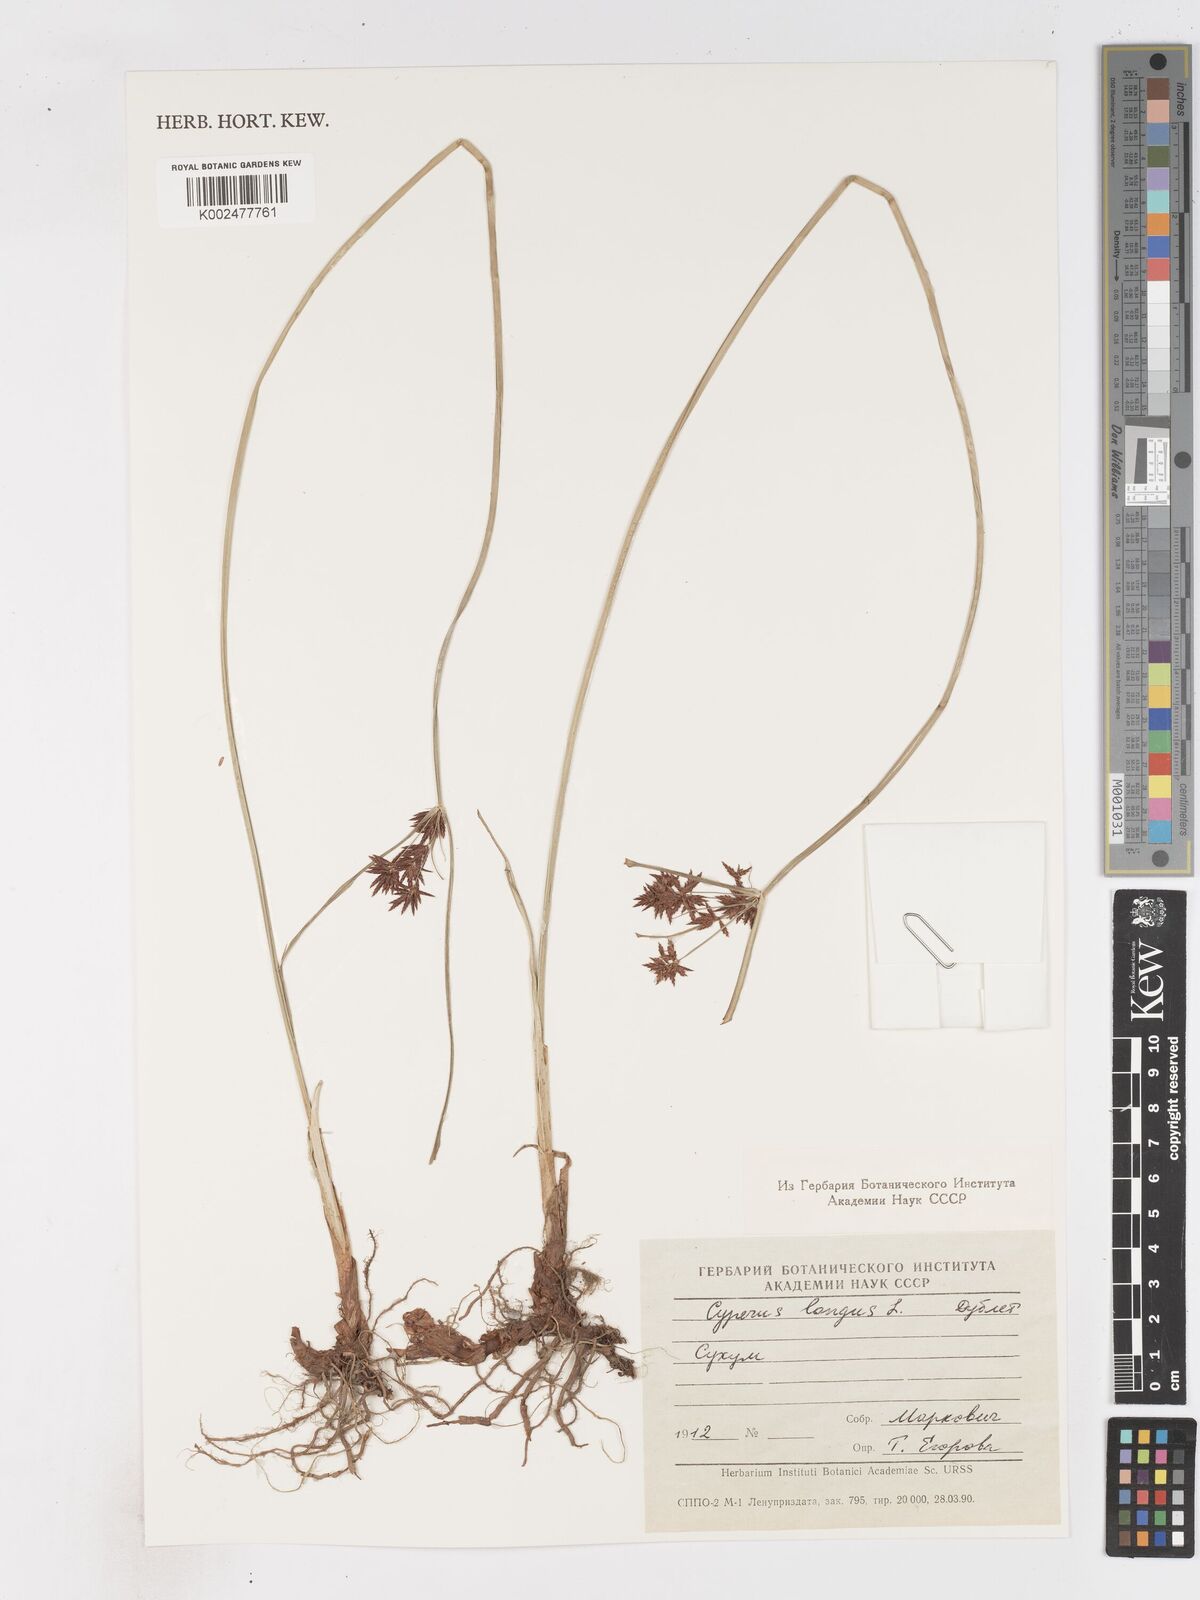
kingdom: Plantae
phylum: Tracheophyta
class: Liliopsida
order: Poales
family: Cyperaceae
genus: Cyperus
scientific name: Cyperus longus
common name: Galingale
